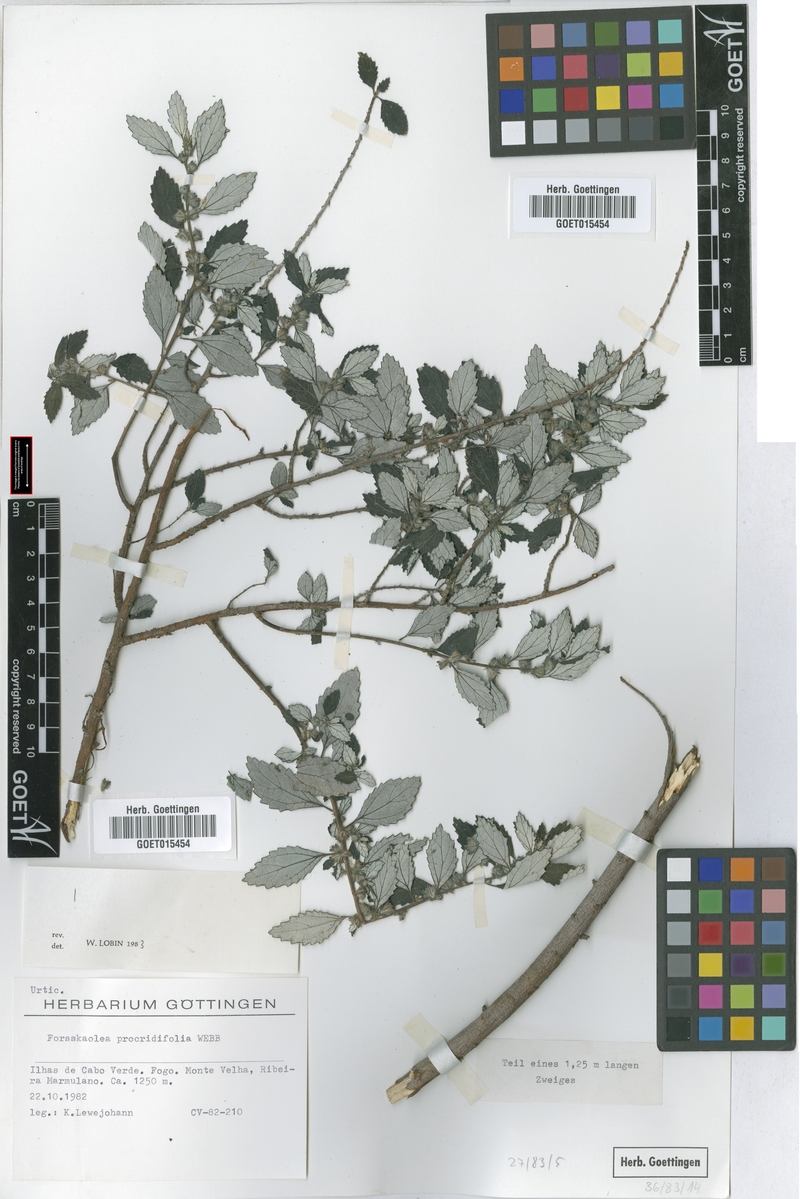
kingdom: Plantae
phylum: Tracheophyta
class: Magnoliopsida
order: Rosales
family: Urticaceae
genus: Forsskaolea
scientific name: Forsskaolea procridifolia
